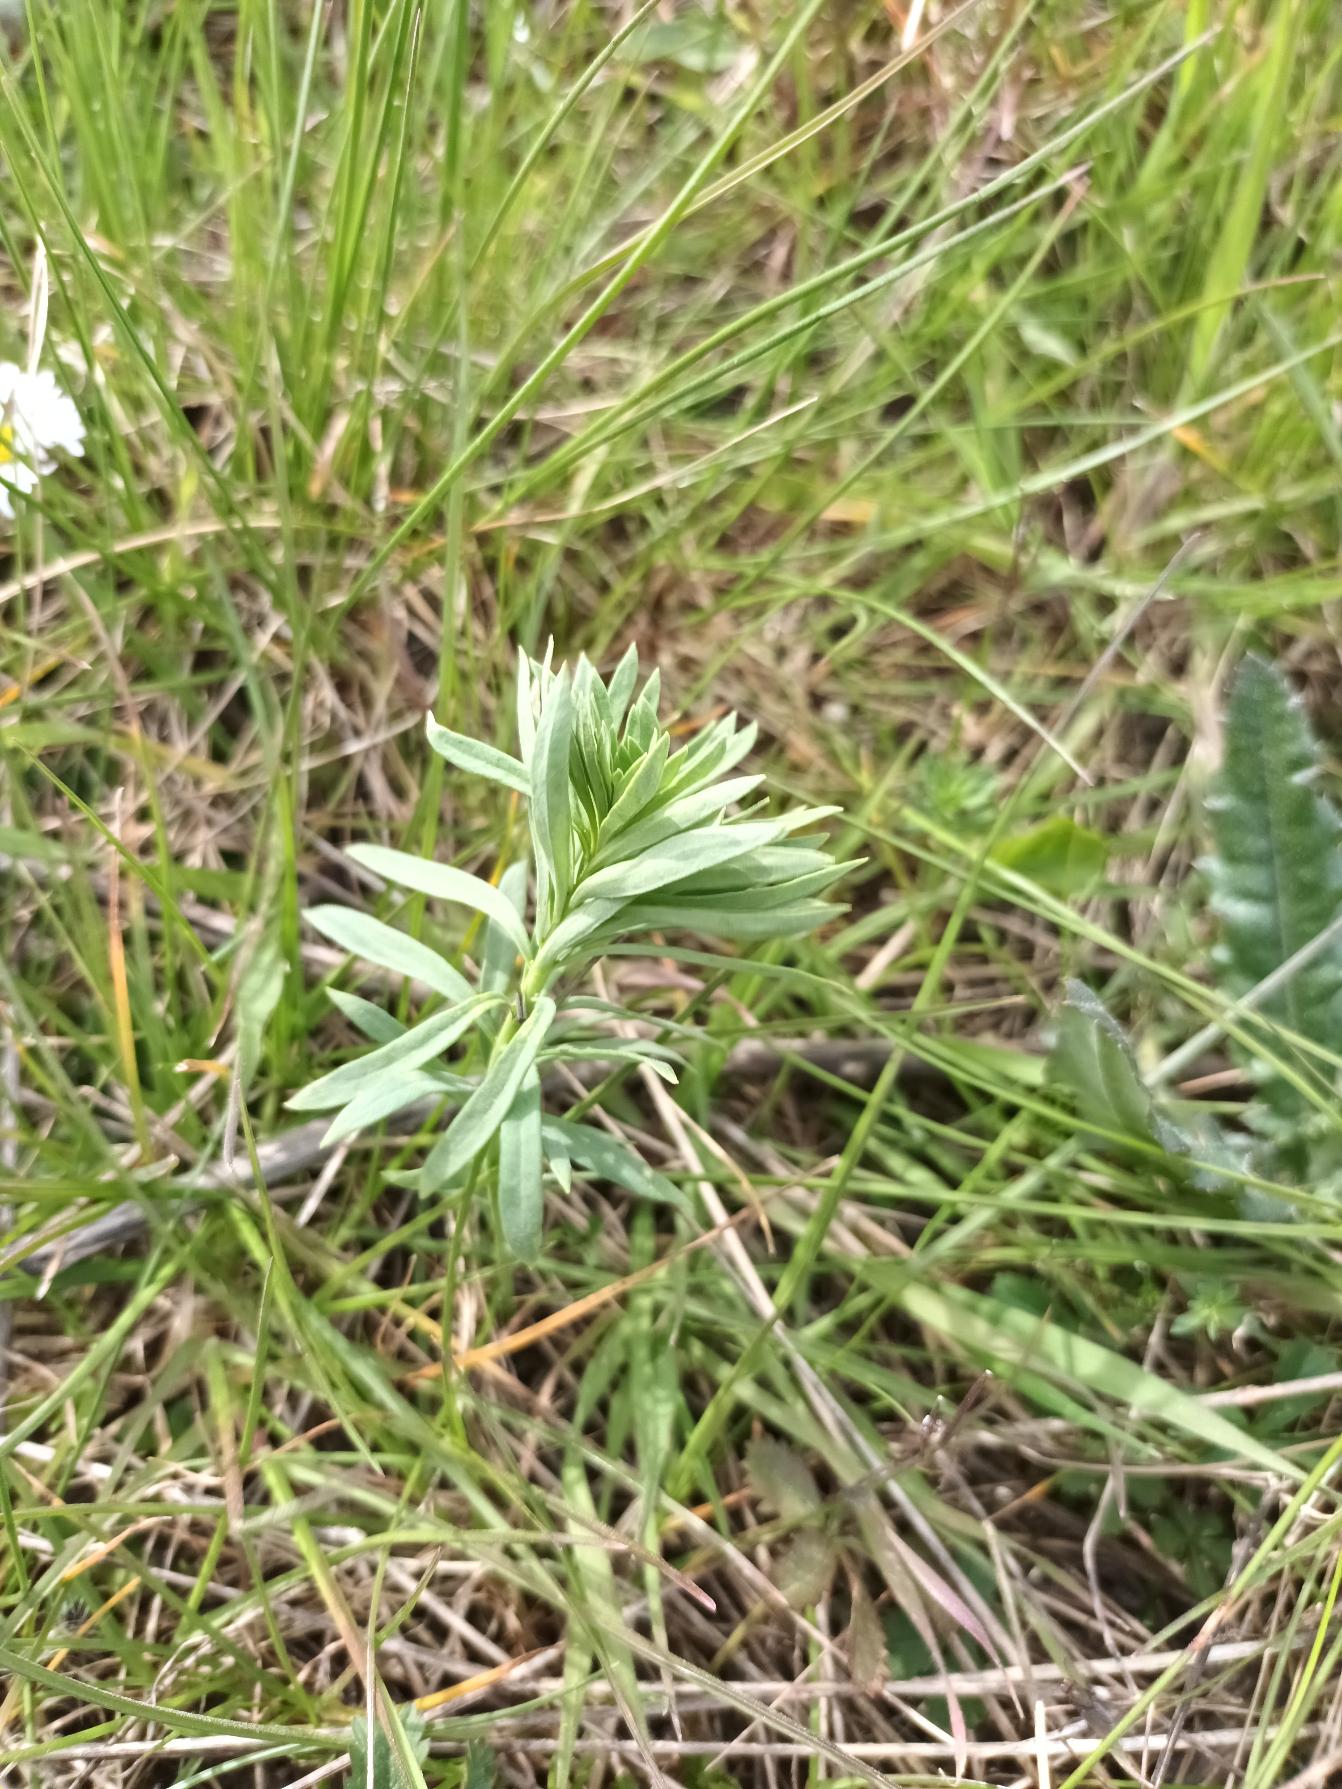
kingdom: Plantae
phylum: Tracheophyta
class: Magnoliopsida
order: Lamiales
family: Plantaginaceae
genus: Linaria
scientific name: Linaria vulgaris
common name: Almindelig torskemund
